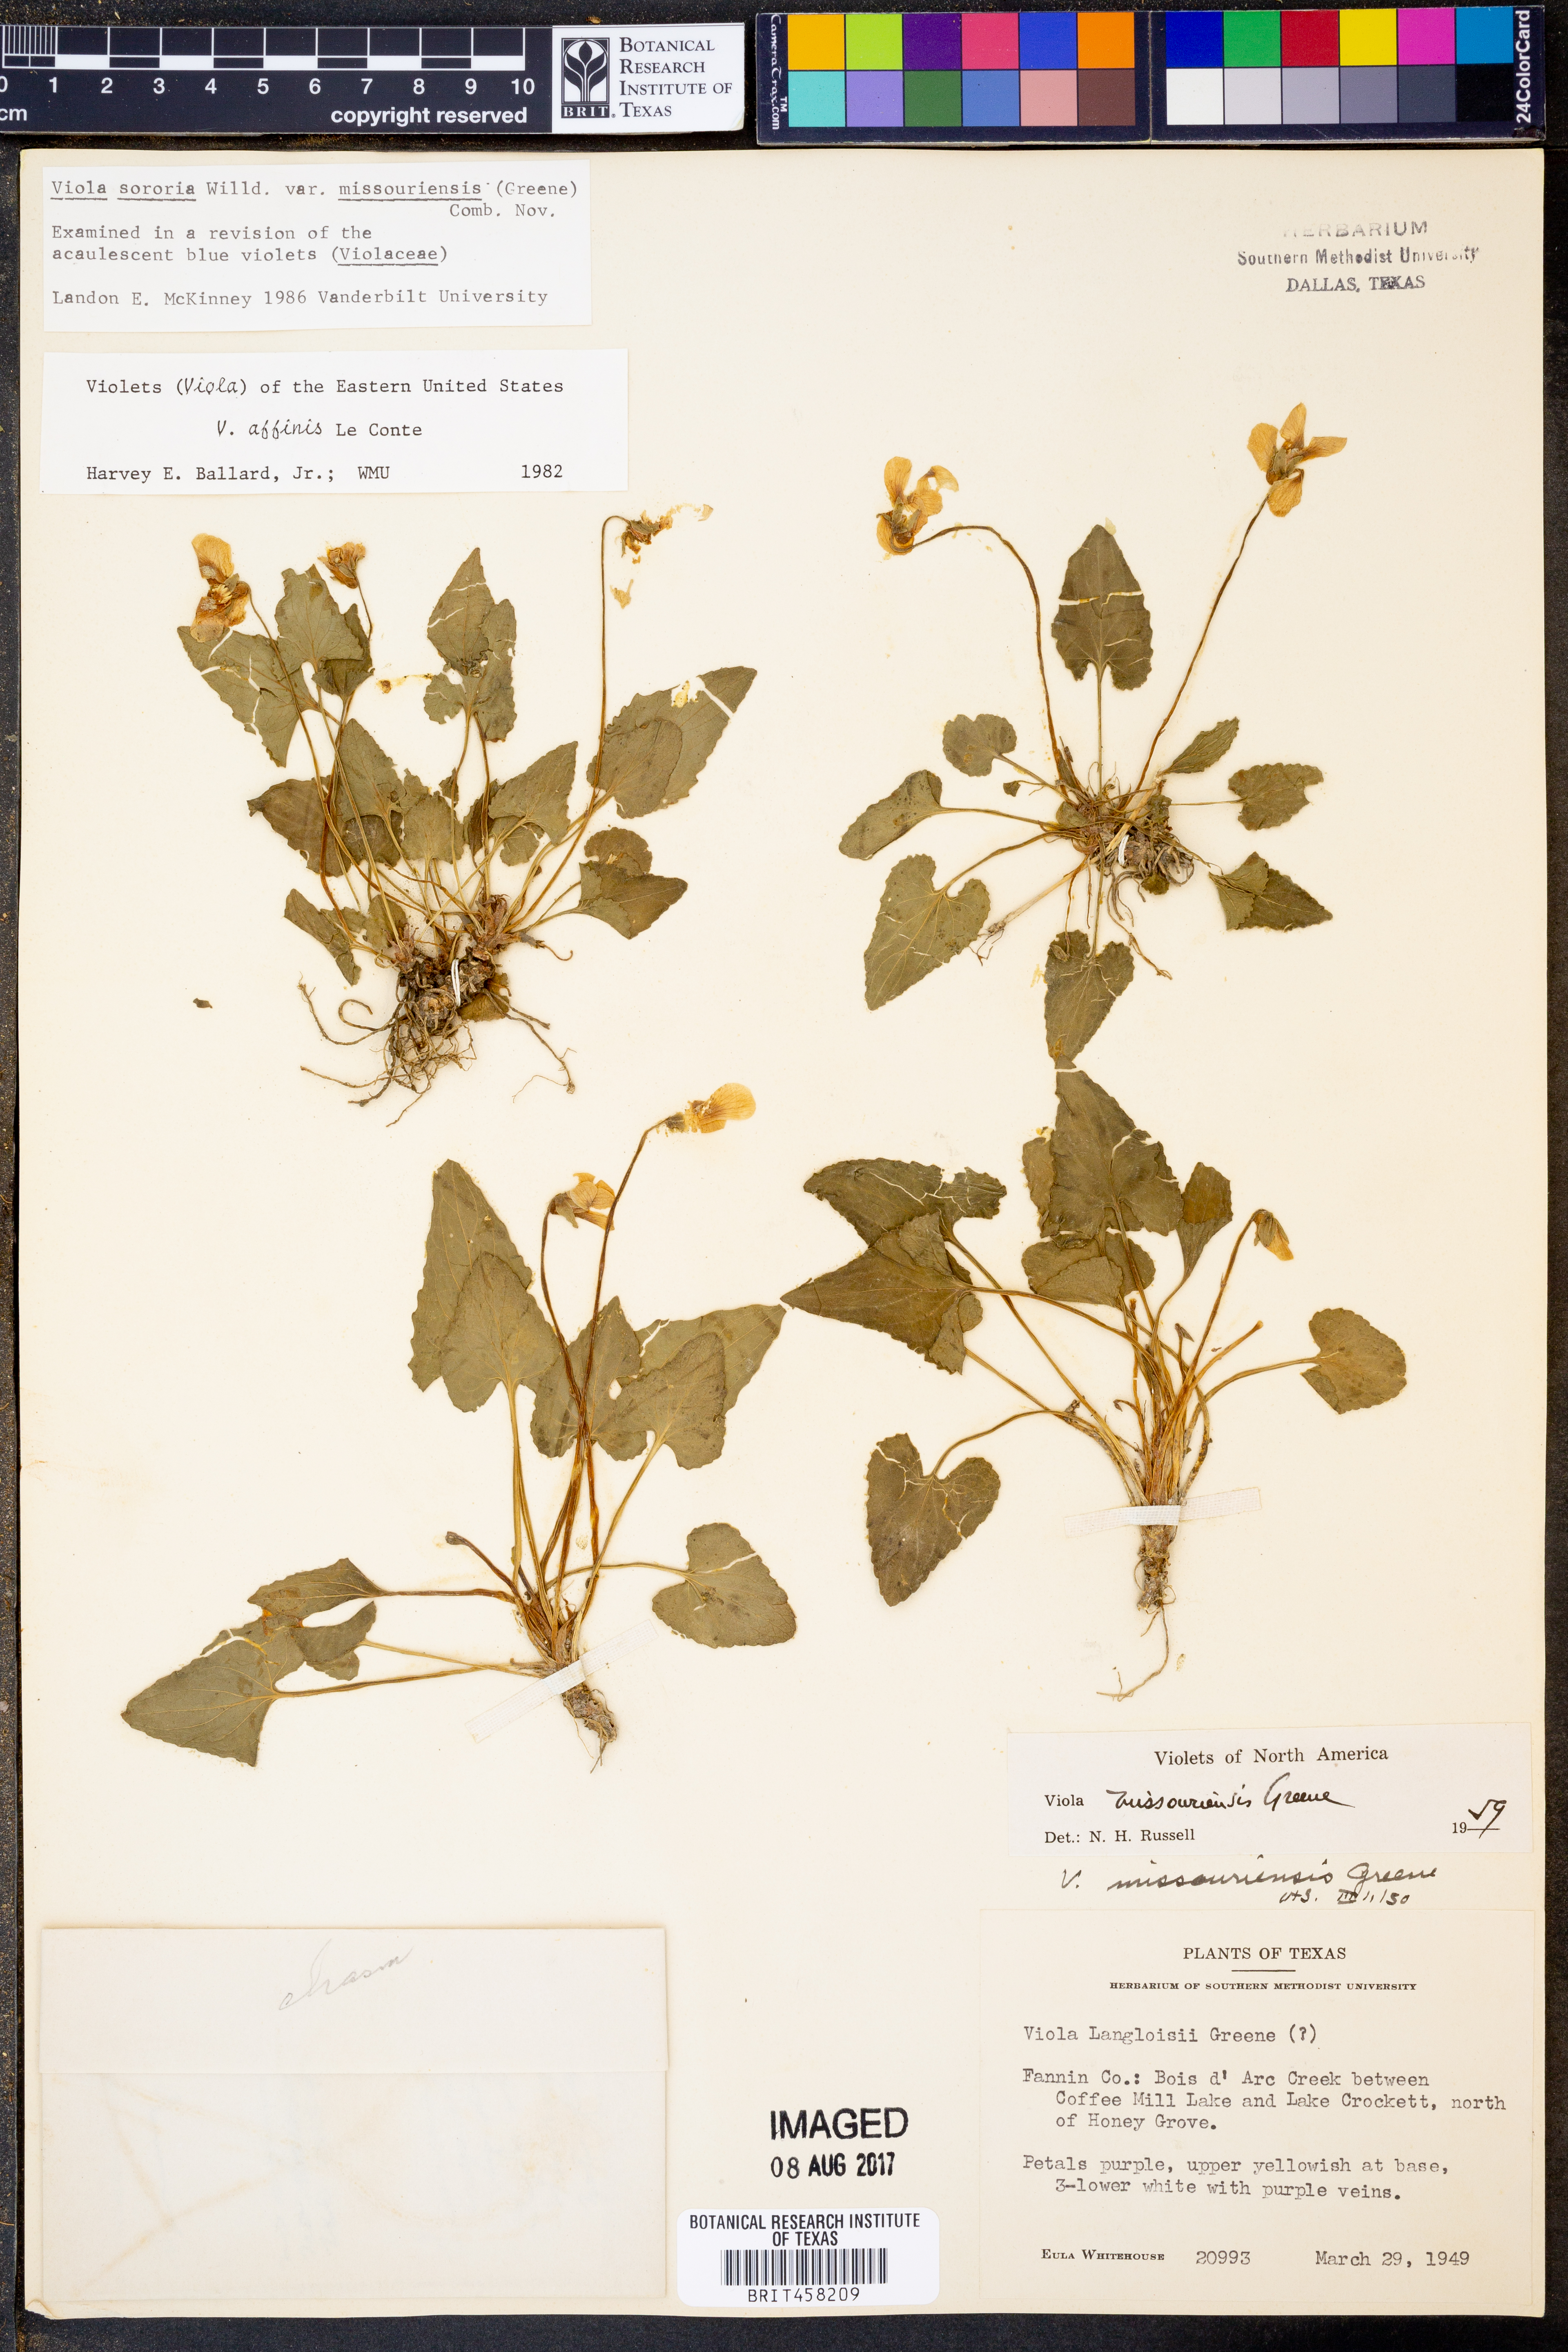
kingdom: Plantae
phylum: Tracheophyta
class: Magnoliopsida
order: Malpighiales
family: Violaceae
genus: Viola
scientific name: Viola missouriensis
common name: Missouri violet
